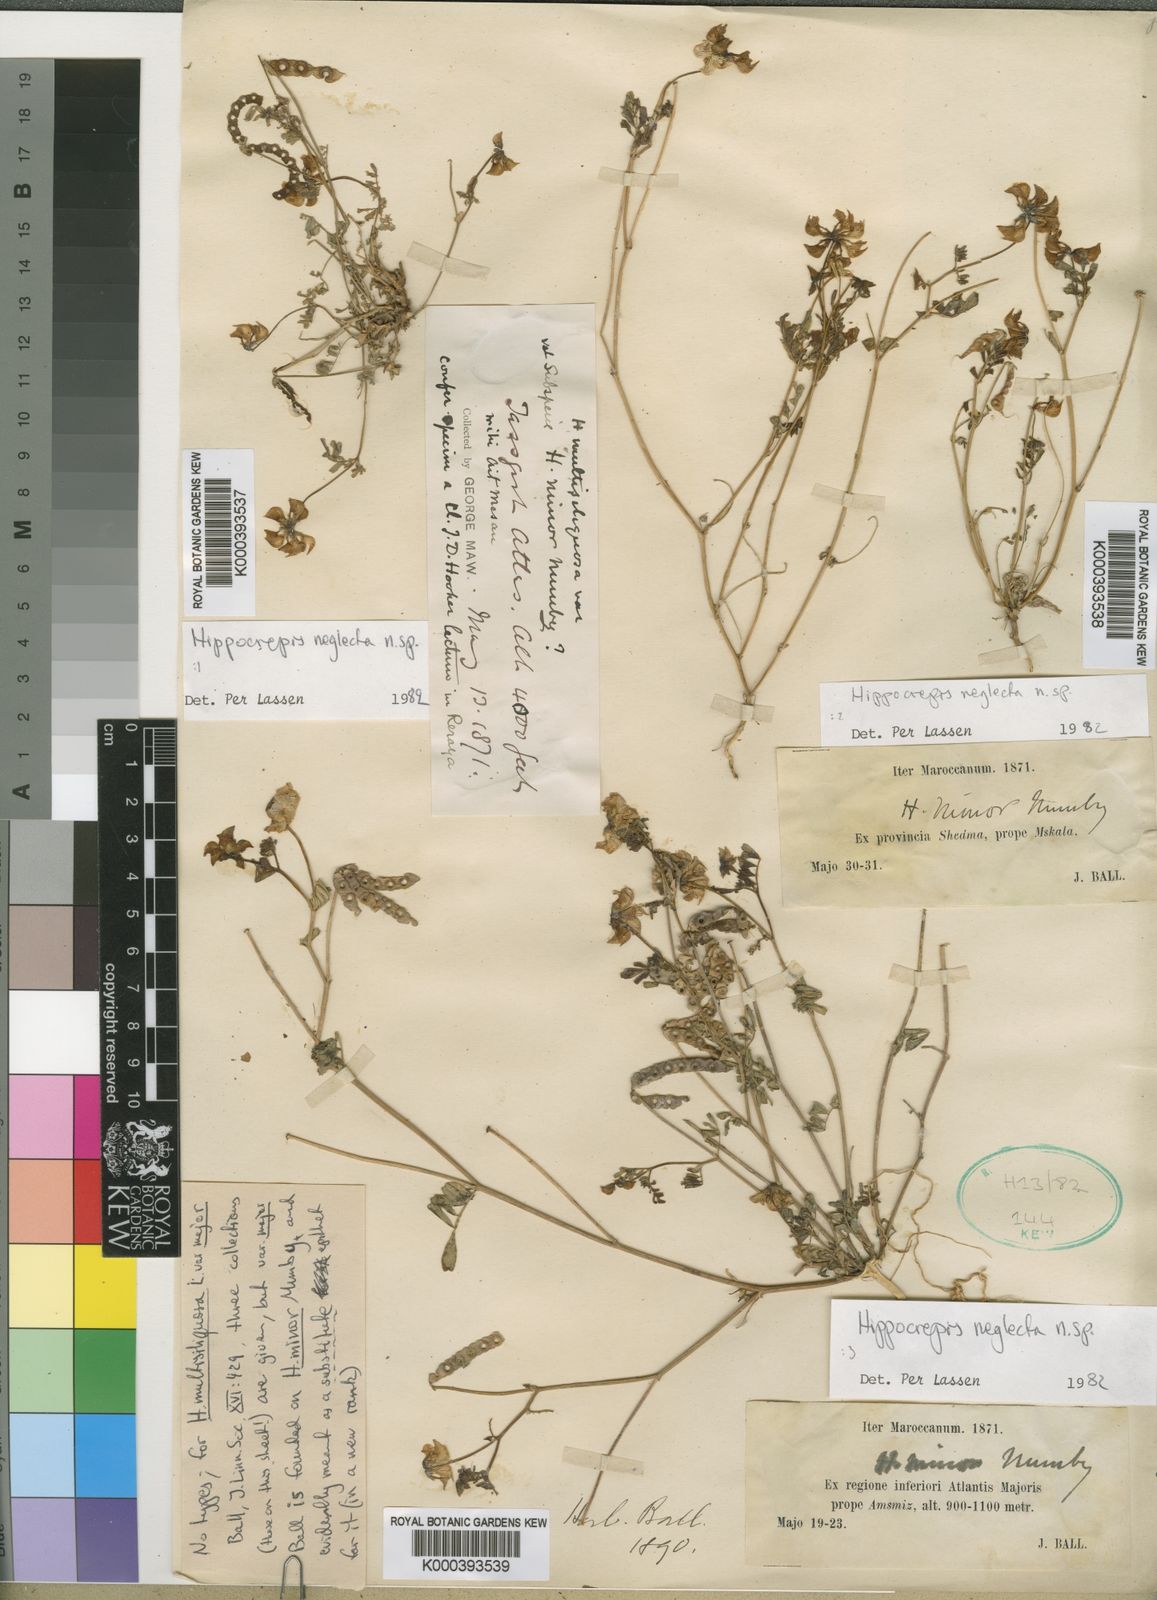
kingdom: Plantae
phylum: Tracheophyta
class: Magnoliopsida
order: Fabales
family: Fabaceae
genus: Hippocrepis
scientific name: Hippocrepis minor
